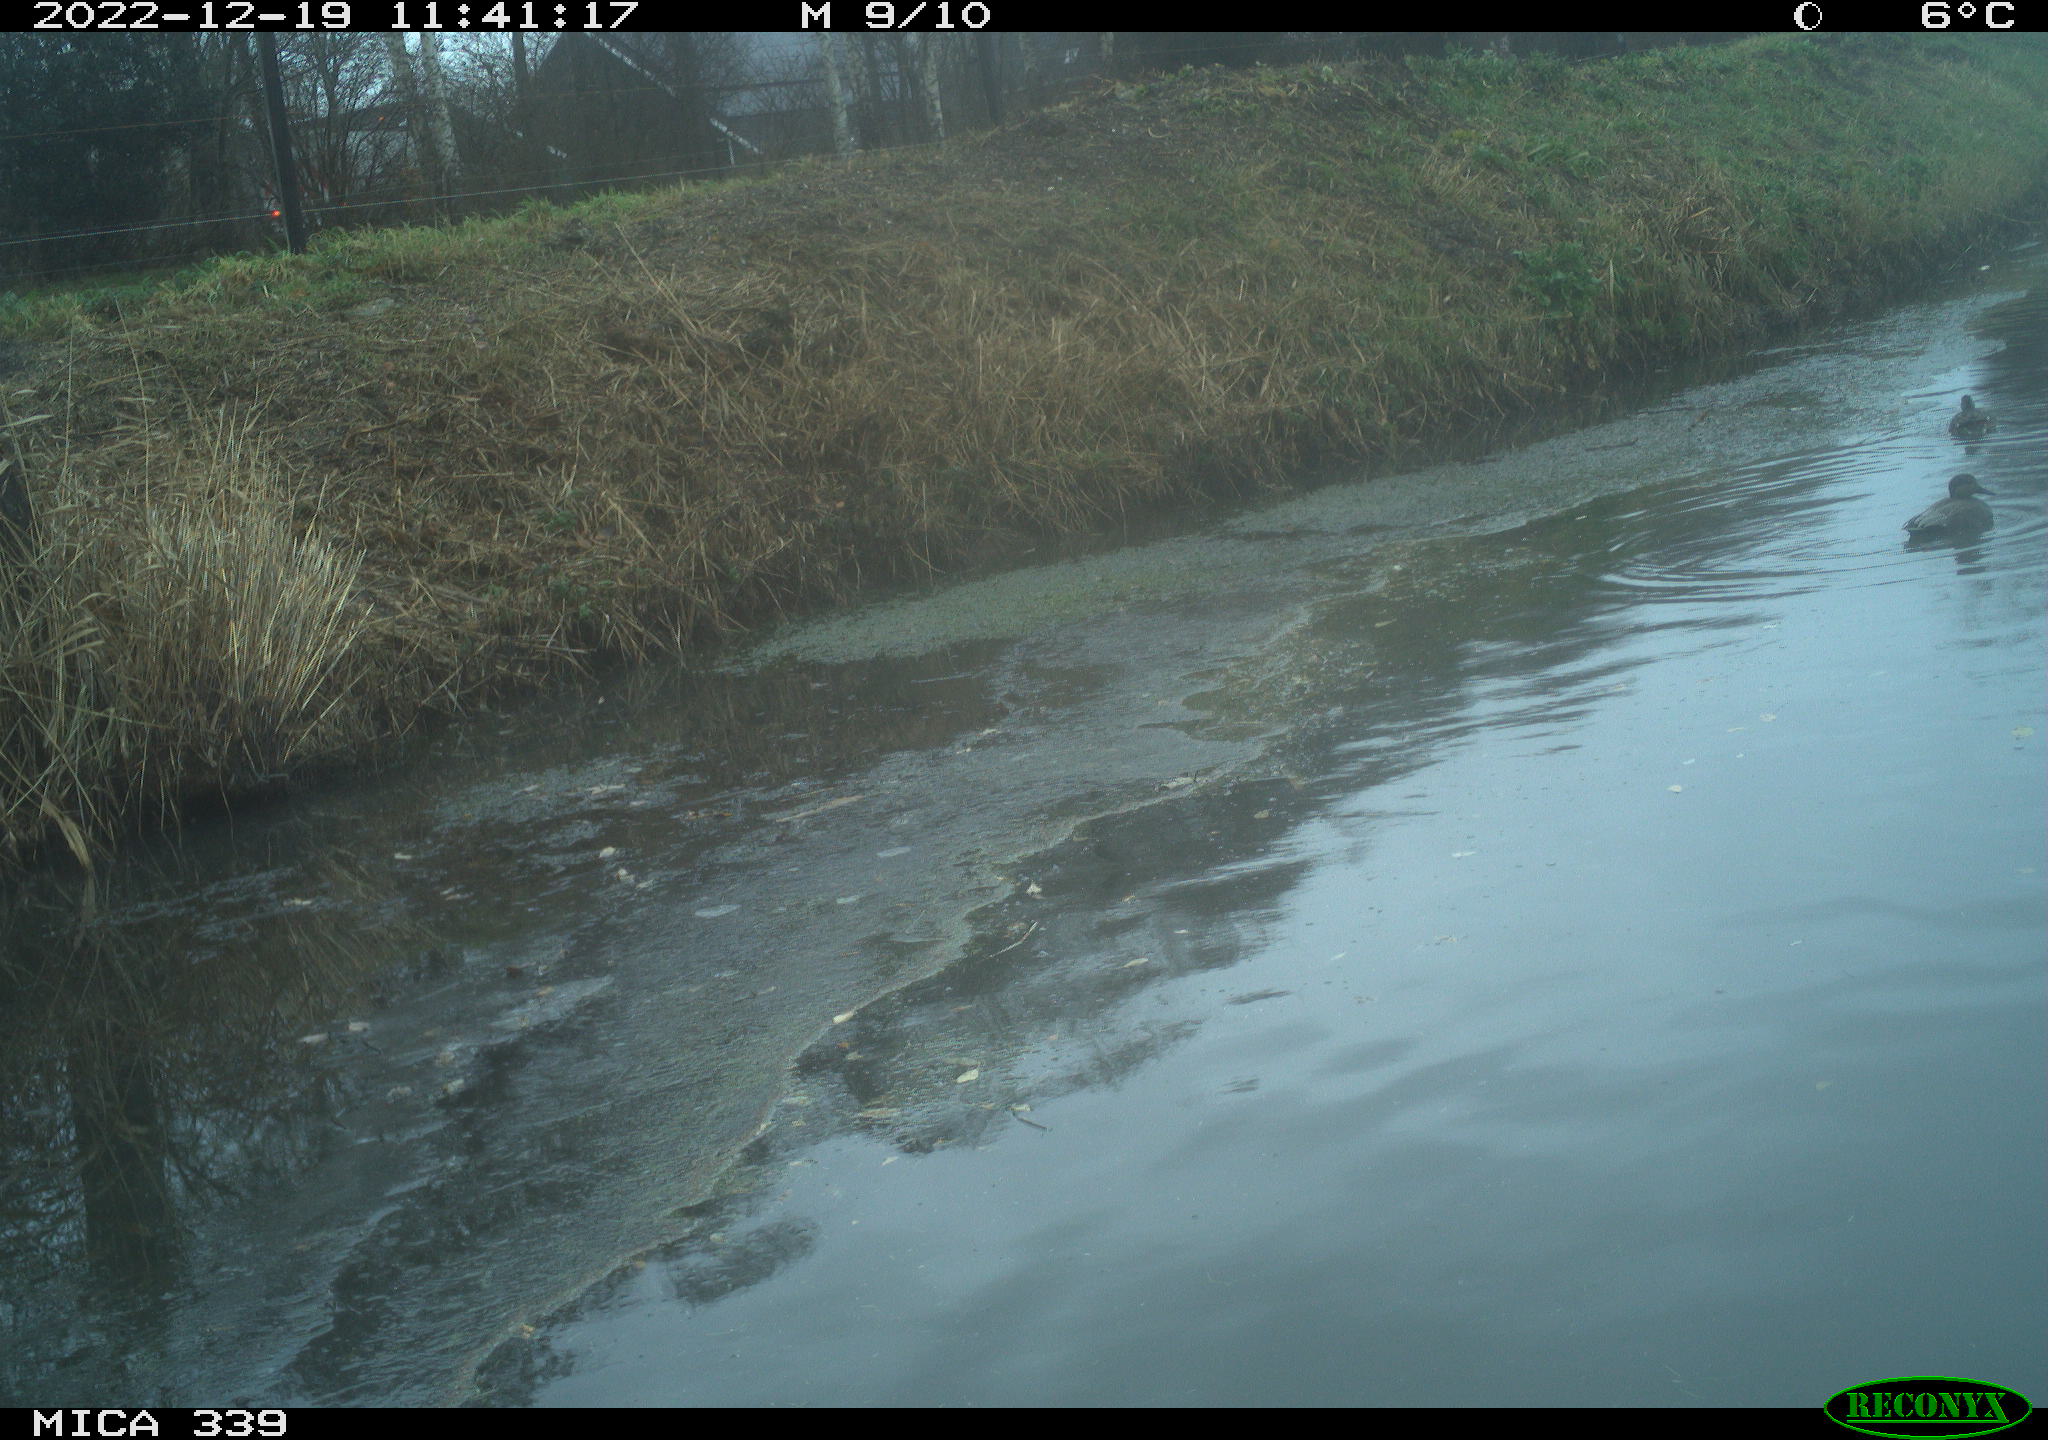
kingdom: Animalia
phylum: Chordata
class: Aves
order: Pelecaniformes
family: Ardeidae
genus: Ardea
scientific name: Ardea alba
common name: Great egret
